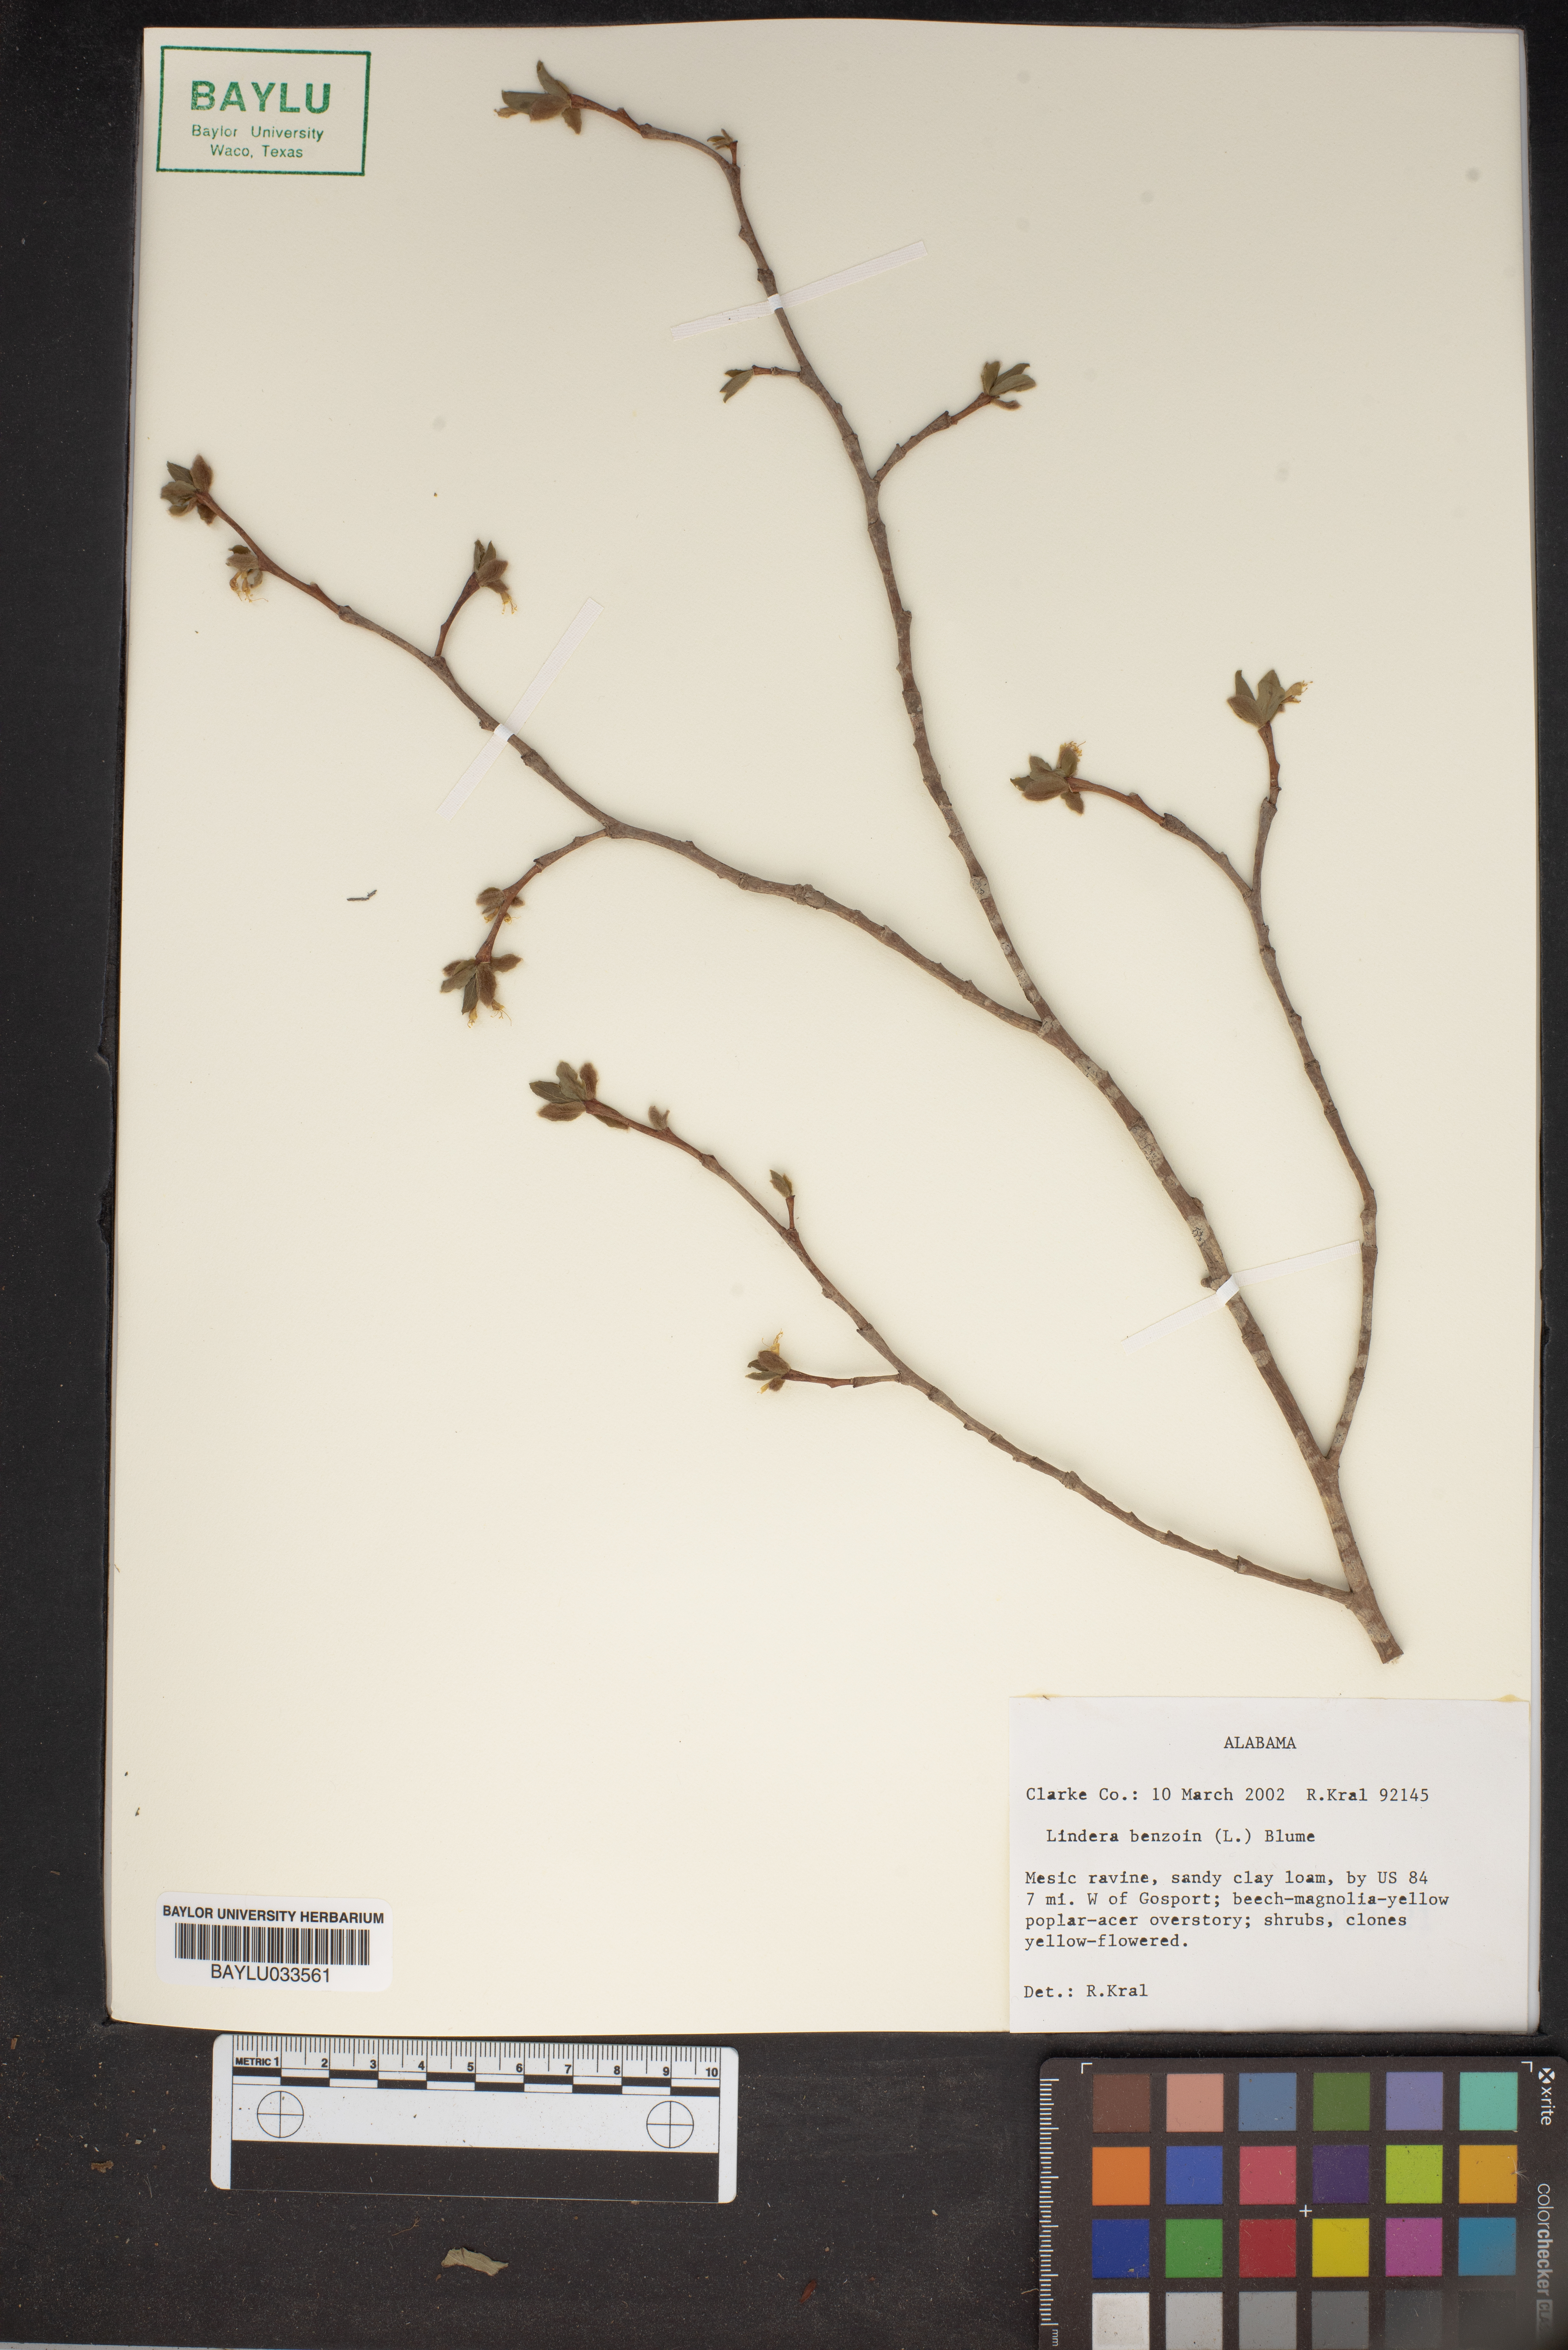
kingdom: Plantae
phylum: Tracheophyta
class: Magnoliopsida
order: Laurales
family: Lauraceae
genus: Lindera
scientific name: Lindera benzoin
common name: Spicebush
